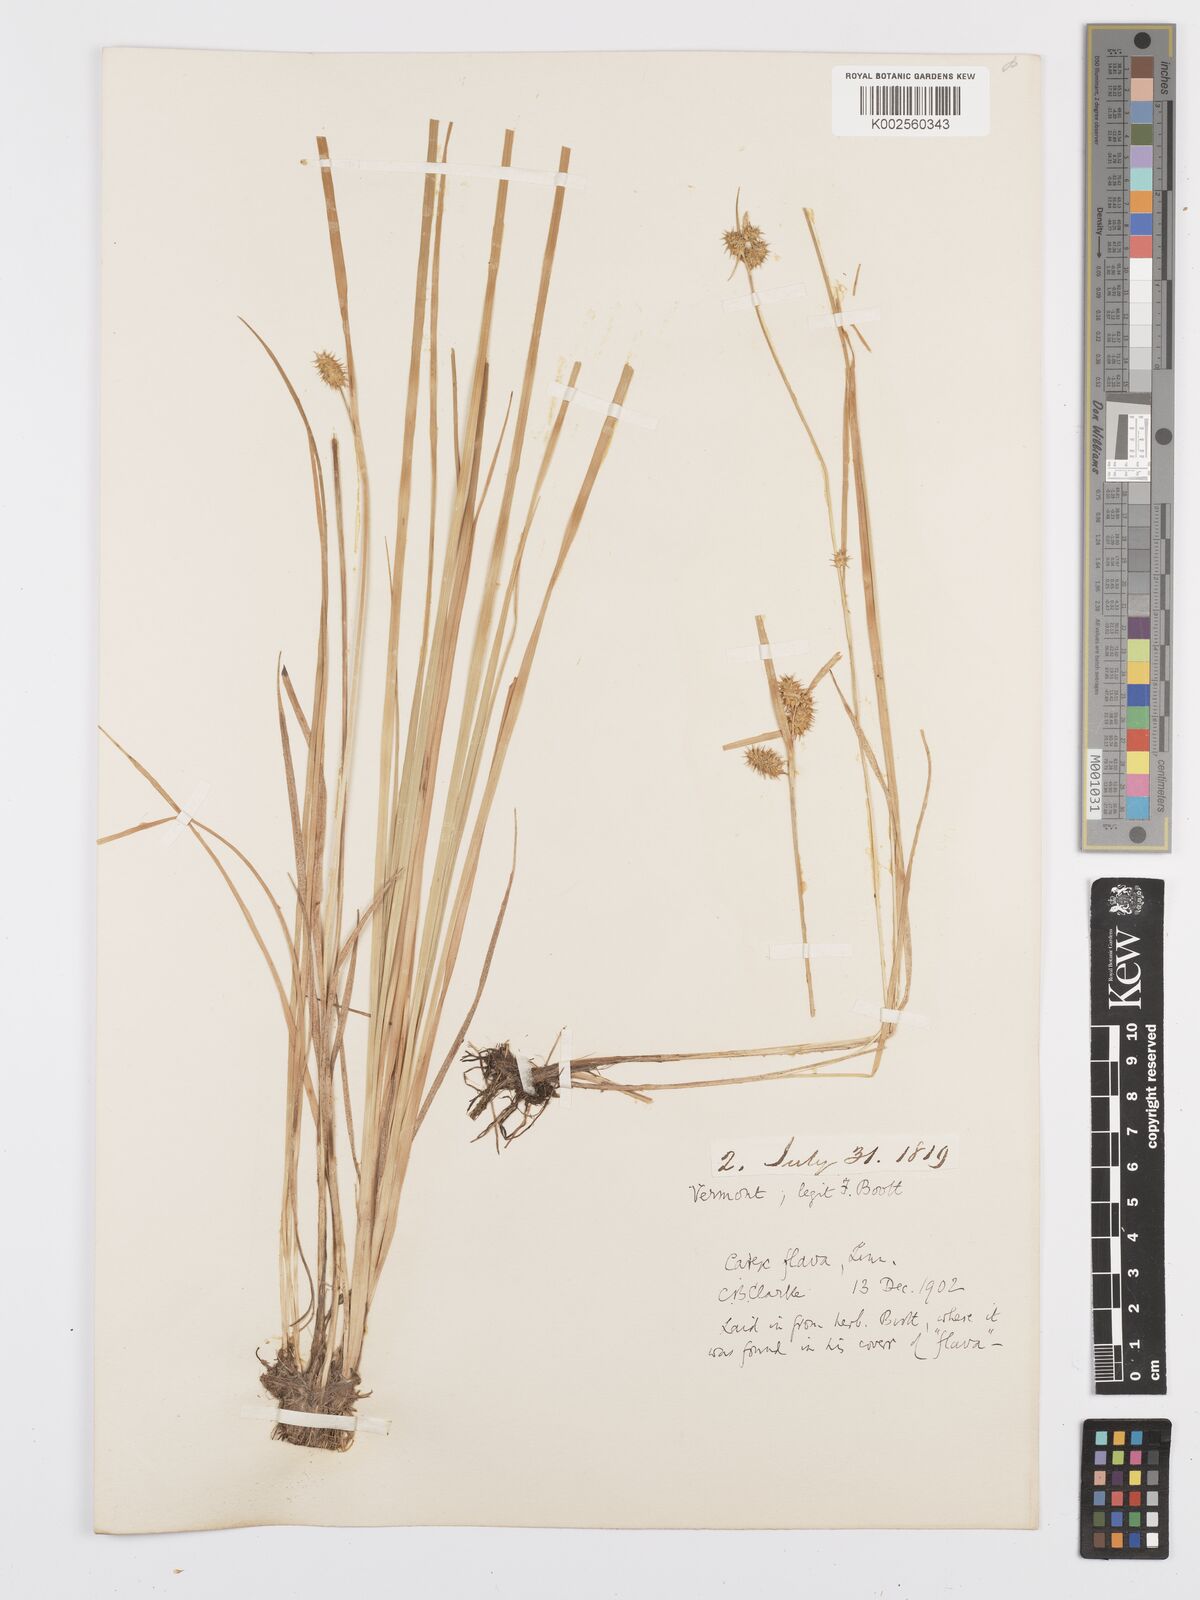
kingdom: Plantae
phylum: Tracheophyta
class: Liliopsida
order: Poales
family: Cyperaceae
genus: Carex
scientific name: Carex flava
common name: Large yellow-sedge
